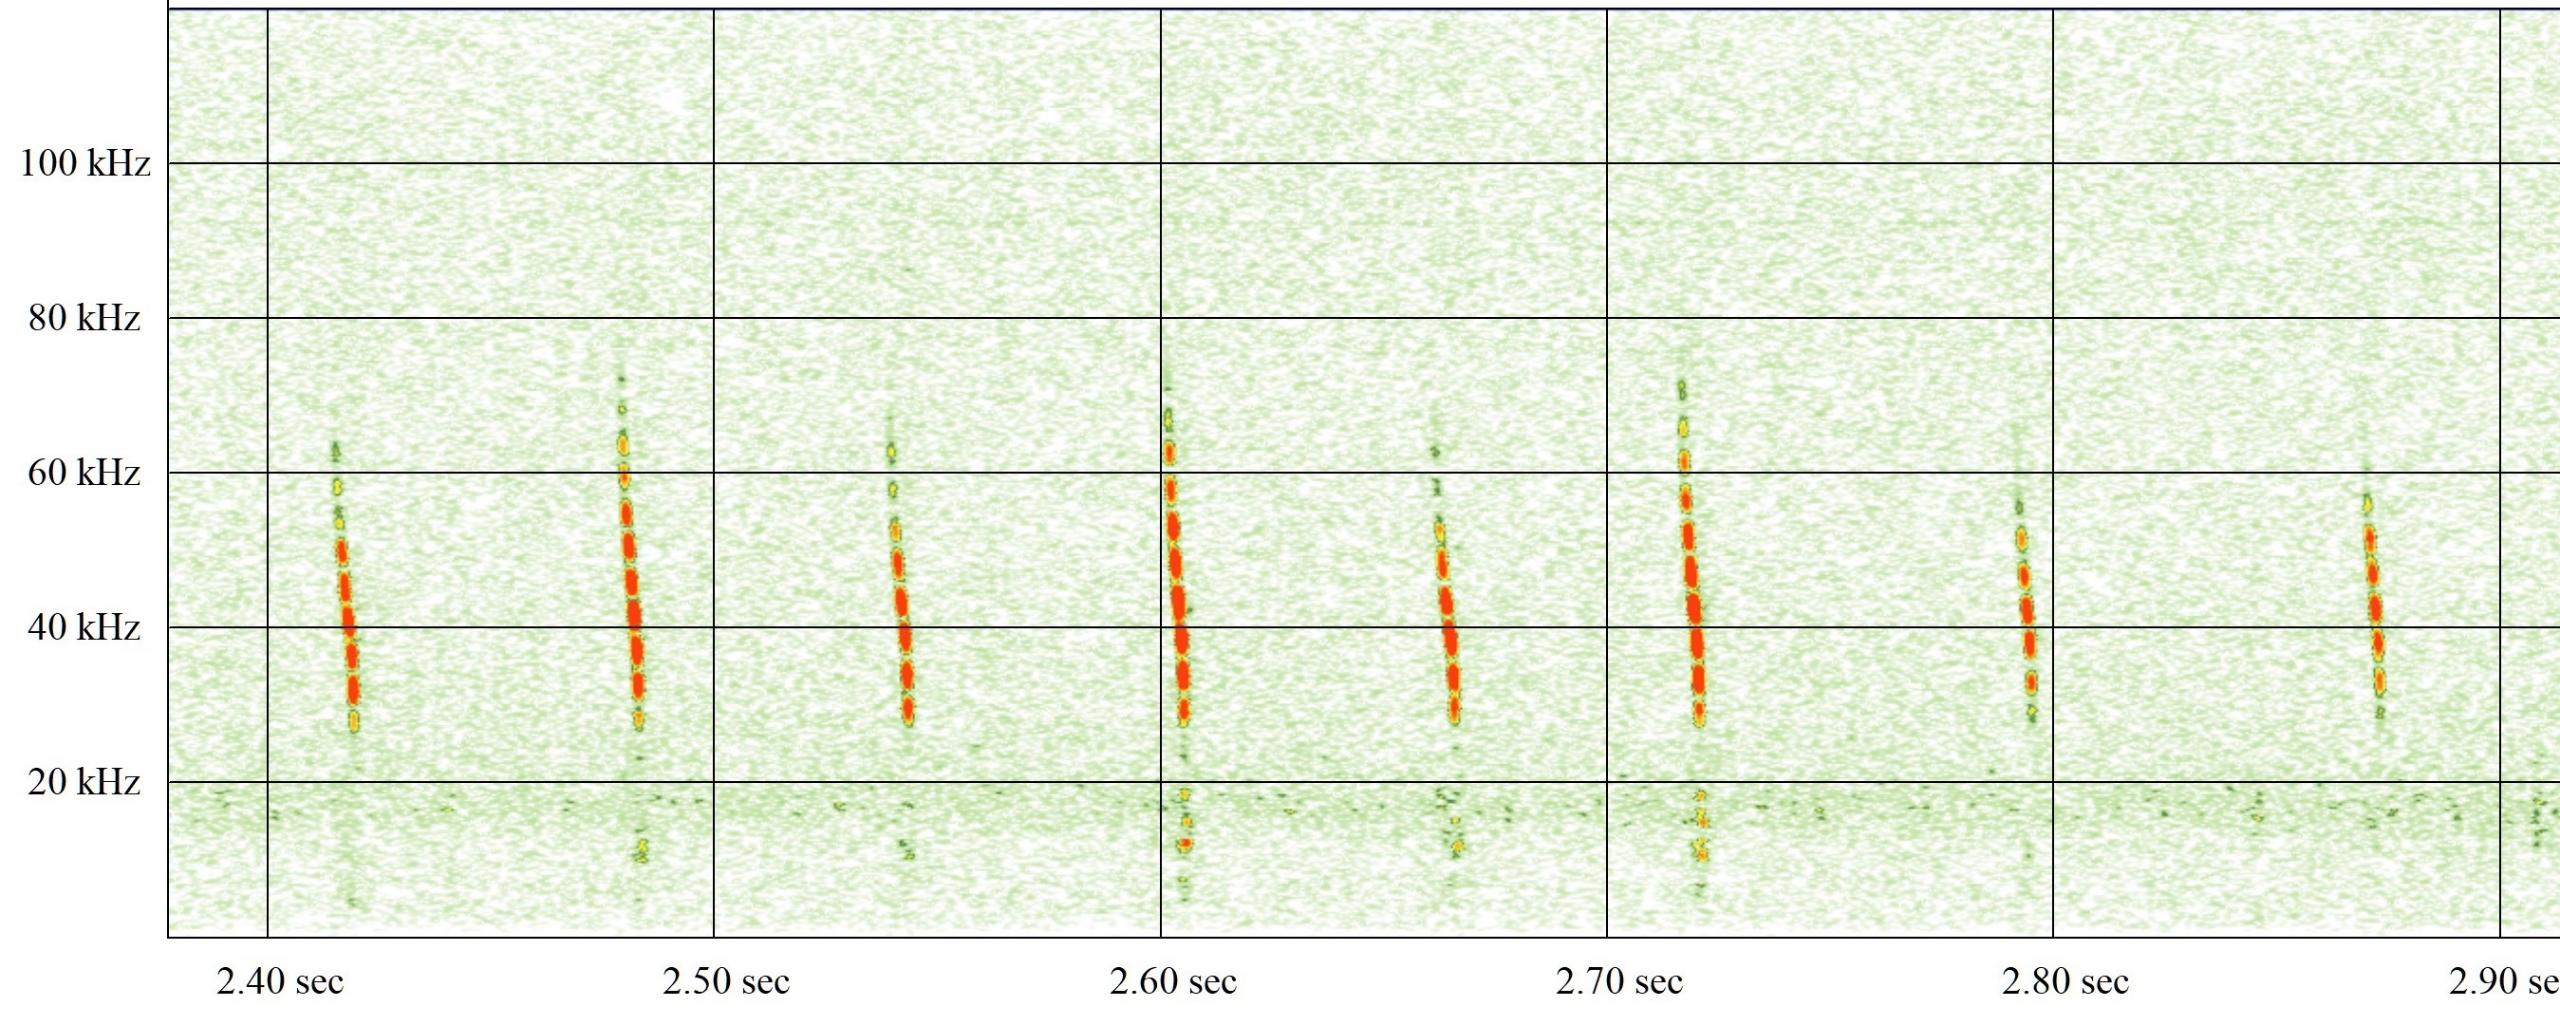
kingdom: Animalia
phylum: Chordata
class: Mammalia
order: Chiroptera
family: Vespertilionidae
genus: Myotis
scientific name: Myotis daubentonii
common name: Vandflagermus
